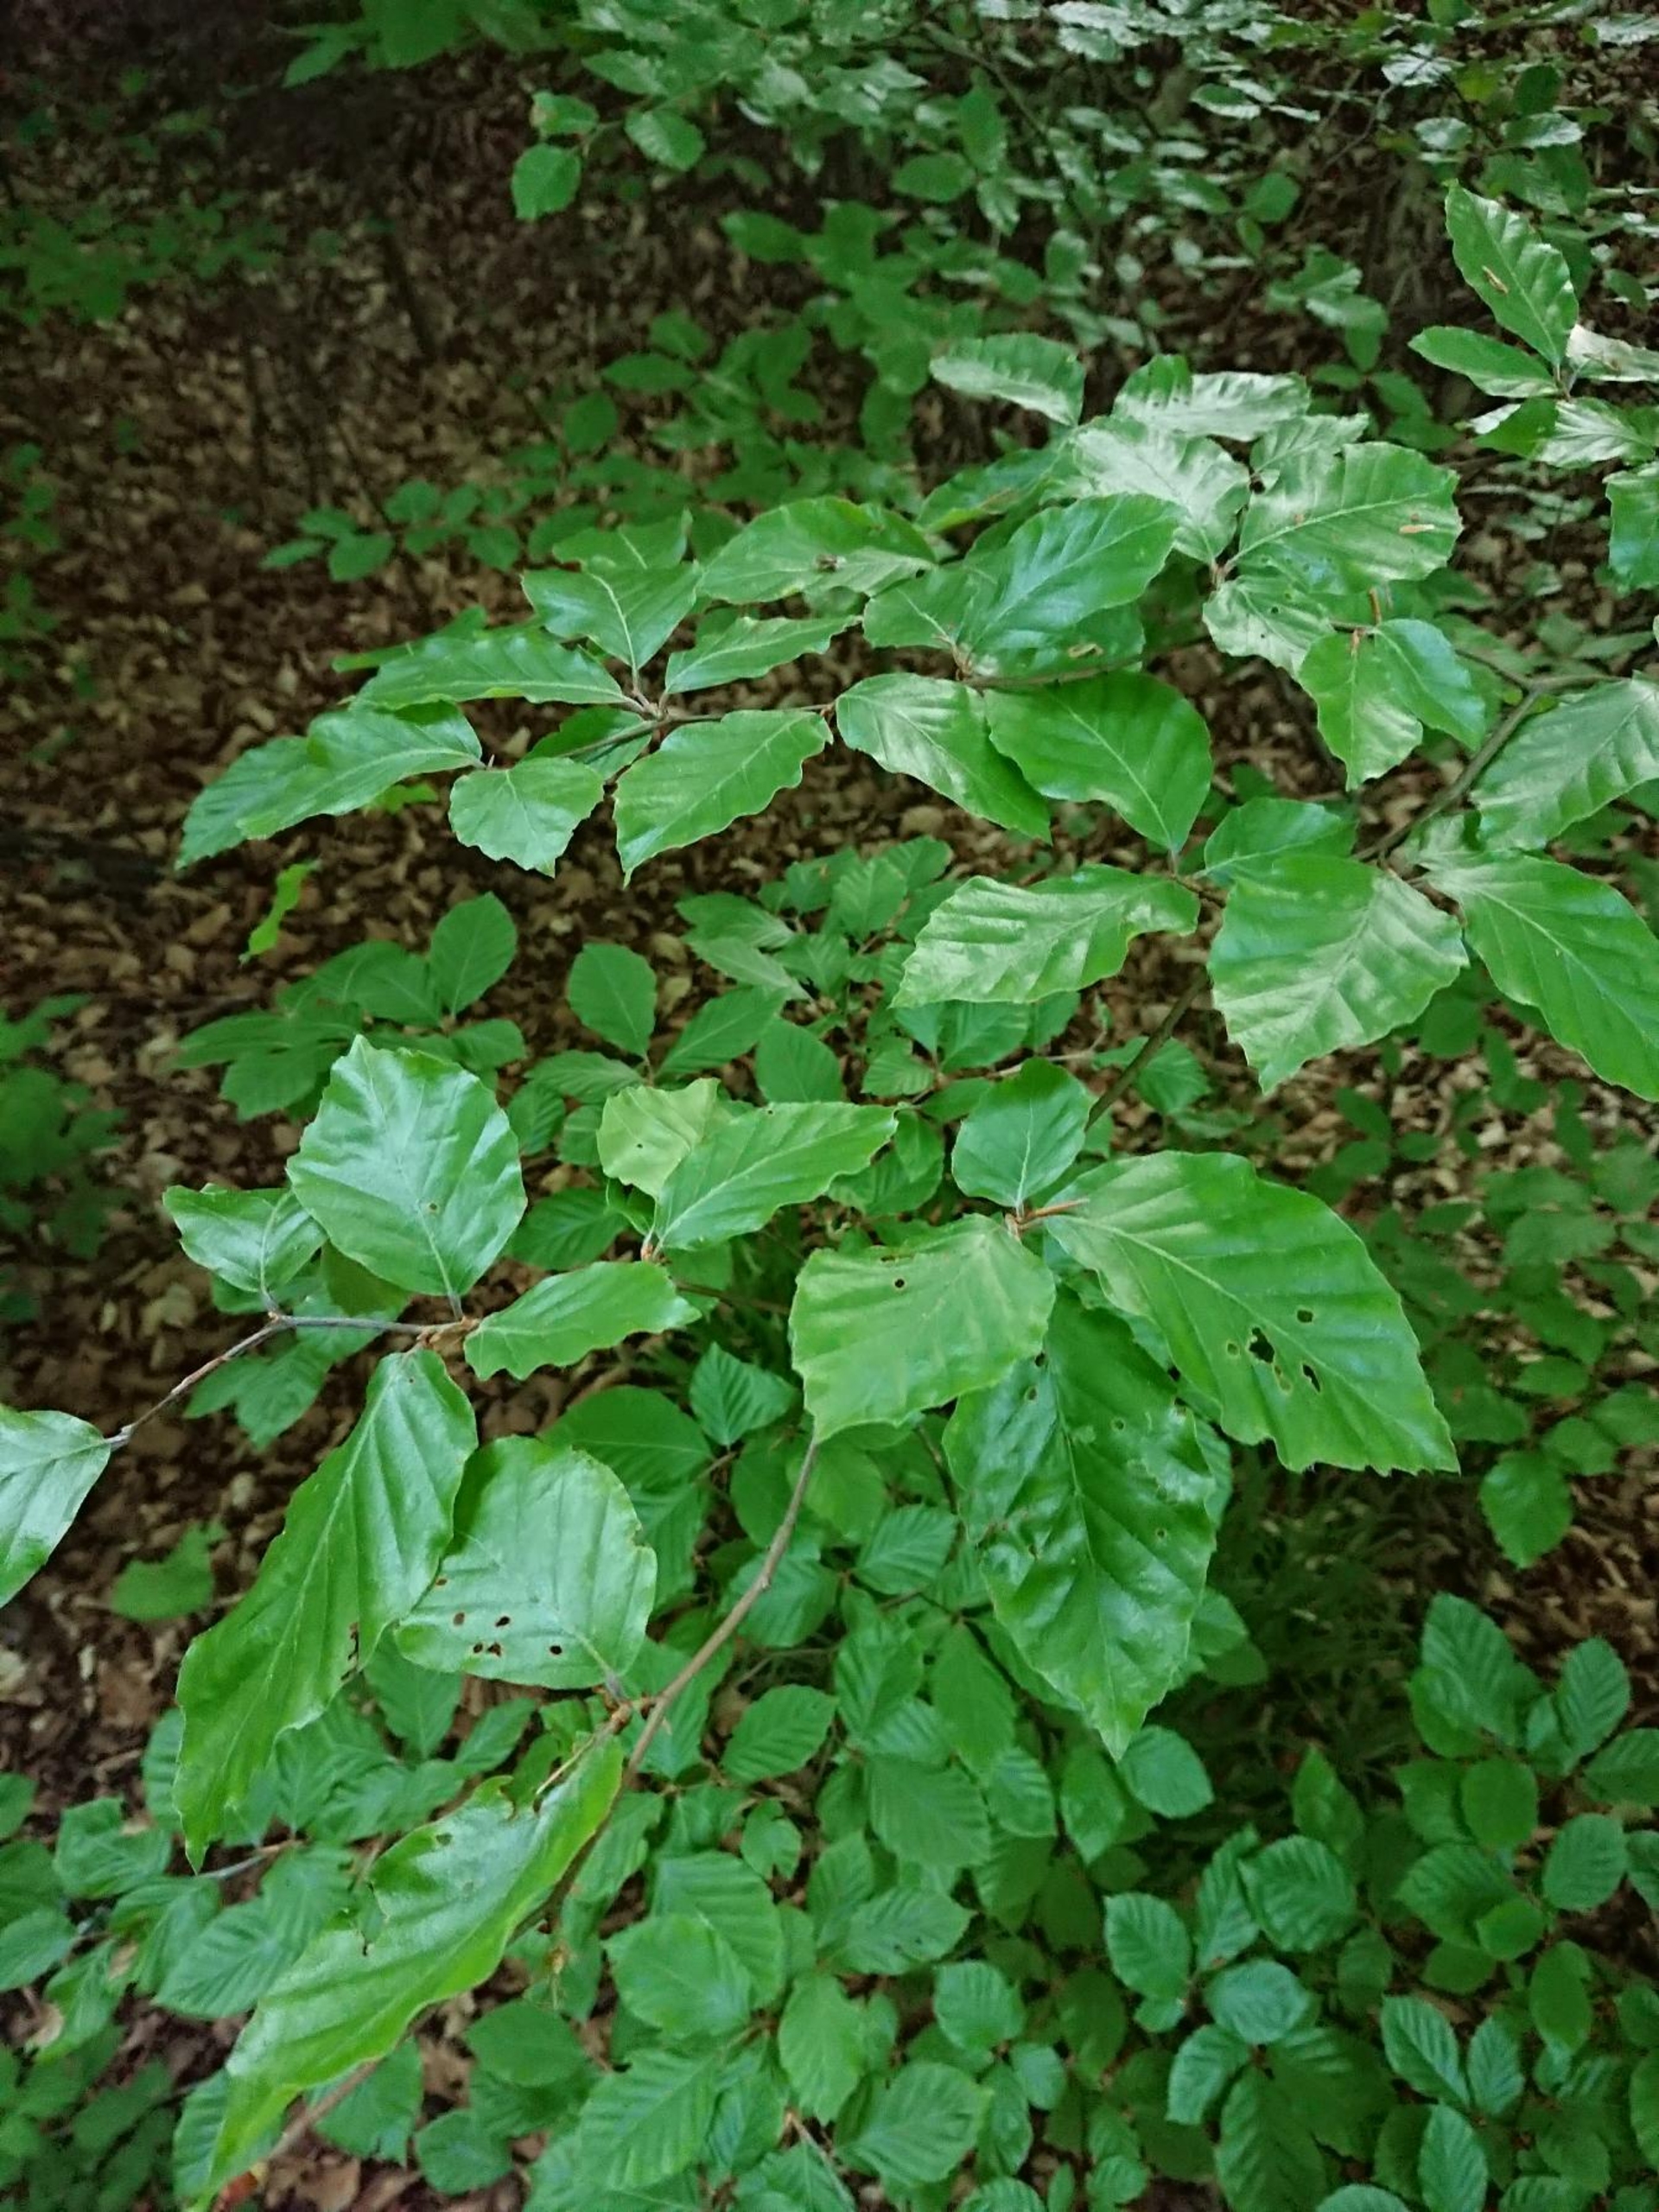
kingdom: Plantae
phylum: Tracheophyta
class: Magnoliopsida
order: Fagales
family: Fagaceae
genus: Fagus
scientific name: Fagus sylvatica
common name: Bøg
